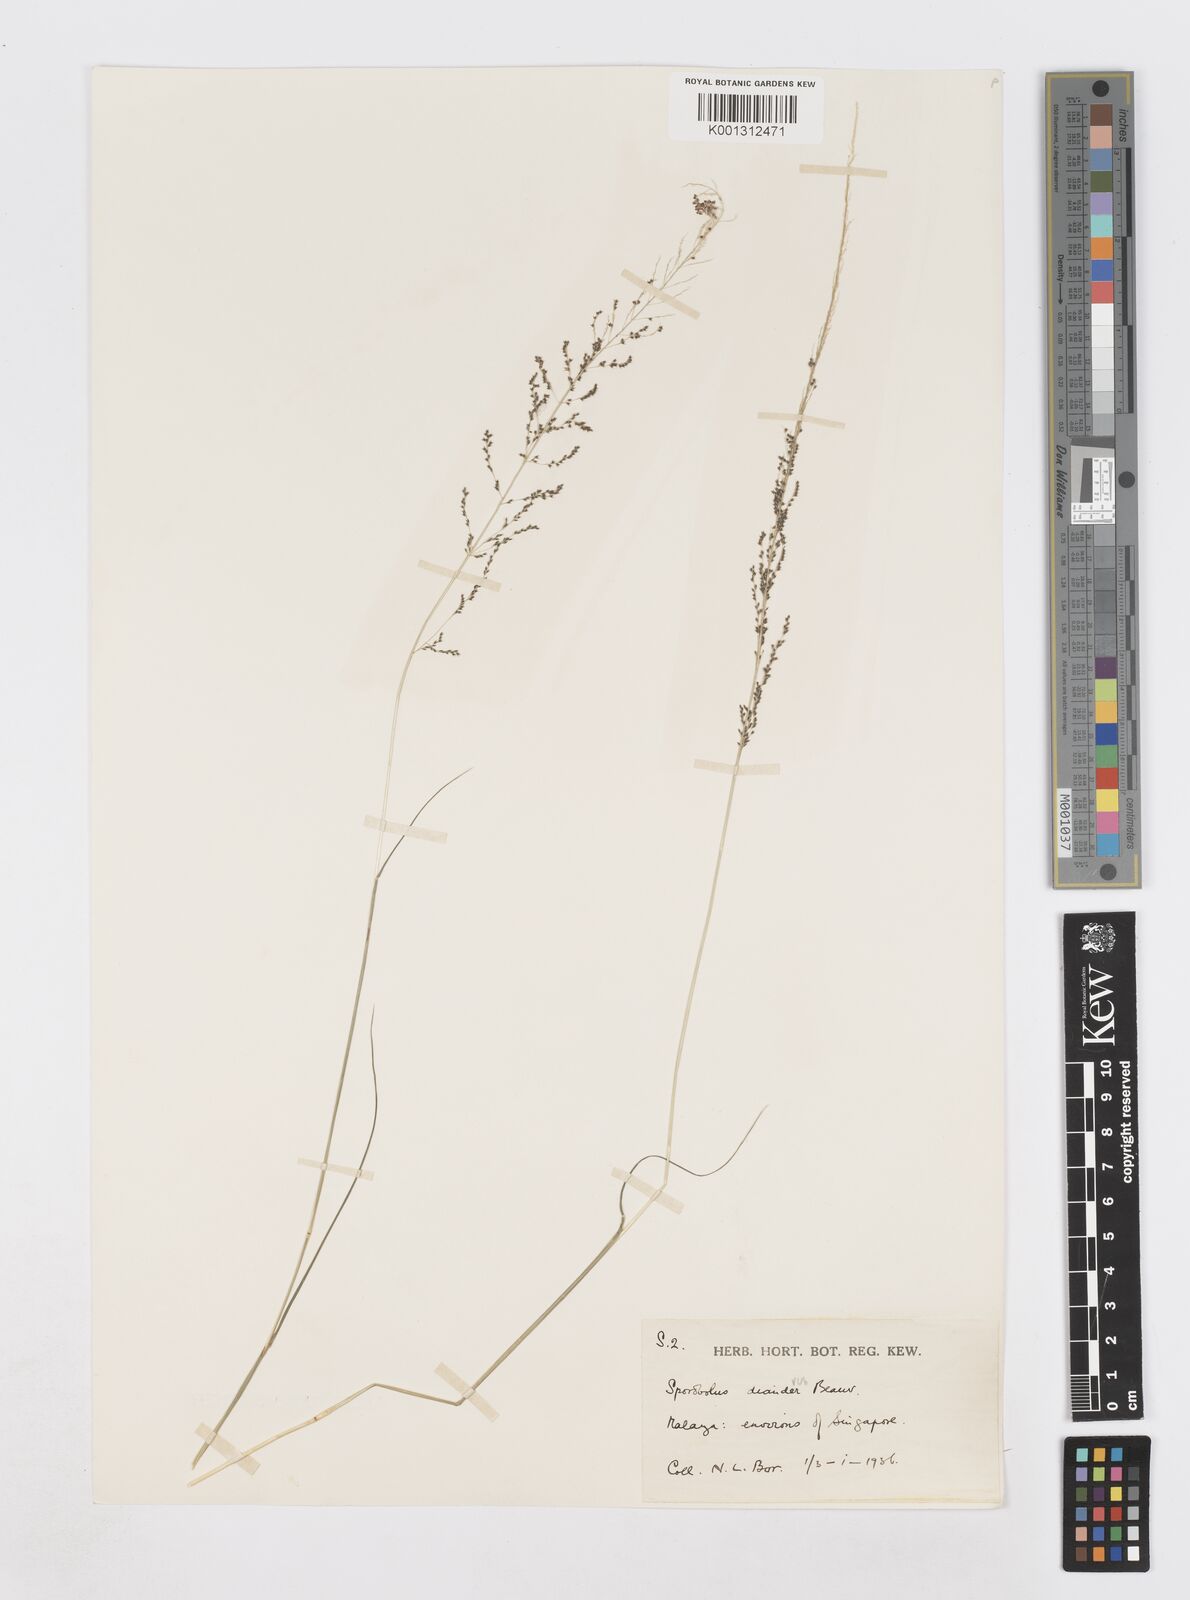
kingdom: Plantae
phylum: Tracheophyta
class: Liliopsida
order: Poales
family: Poaceae
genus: Sporobolus
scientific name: Sporobolus diandrus
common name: Tussock dropseed
